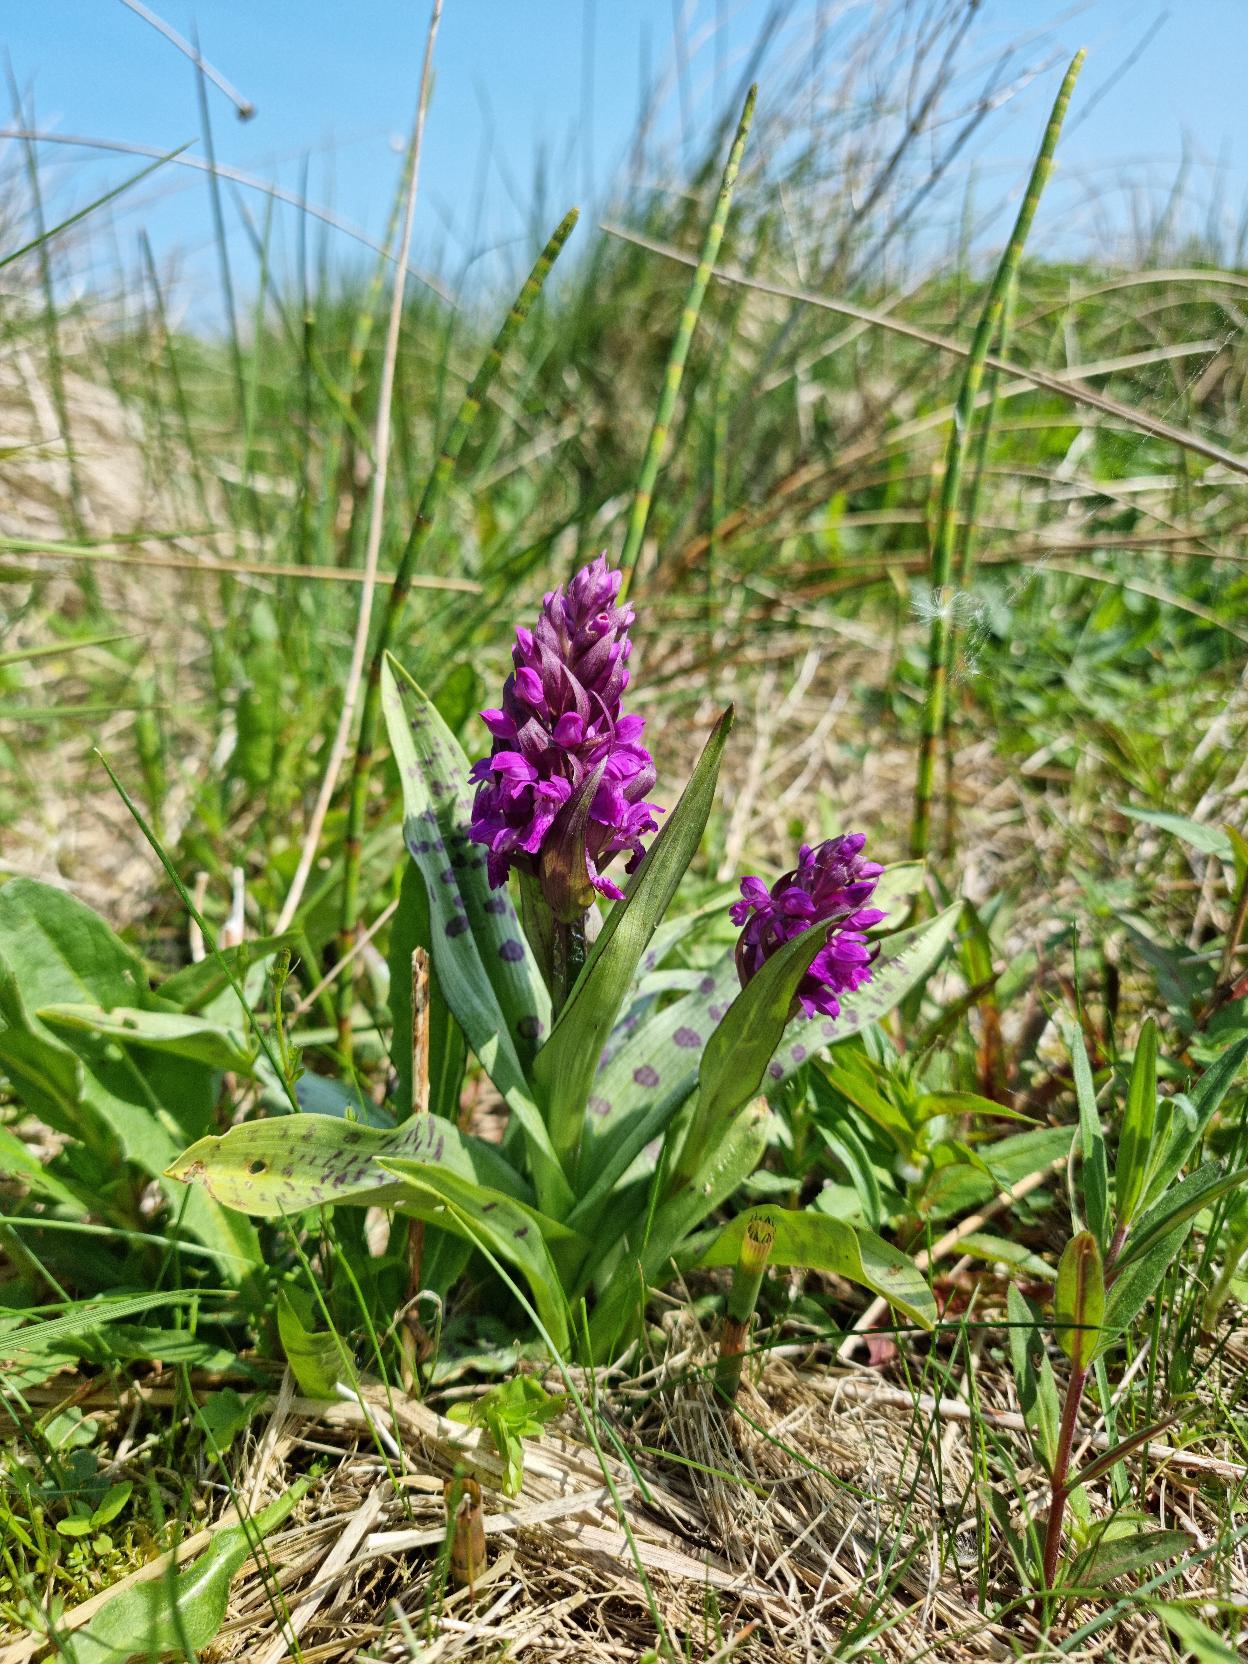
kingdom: Plantae
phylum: Tracheophyta
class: Liliopsida
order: Asparagales
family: Orchidaceae
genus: Dactylorhiza
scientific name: Dactylorhiza majalis
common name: Maj-gøgeurt
